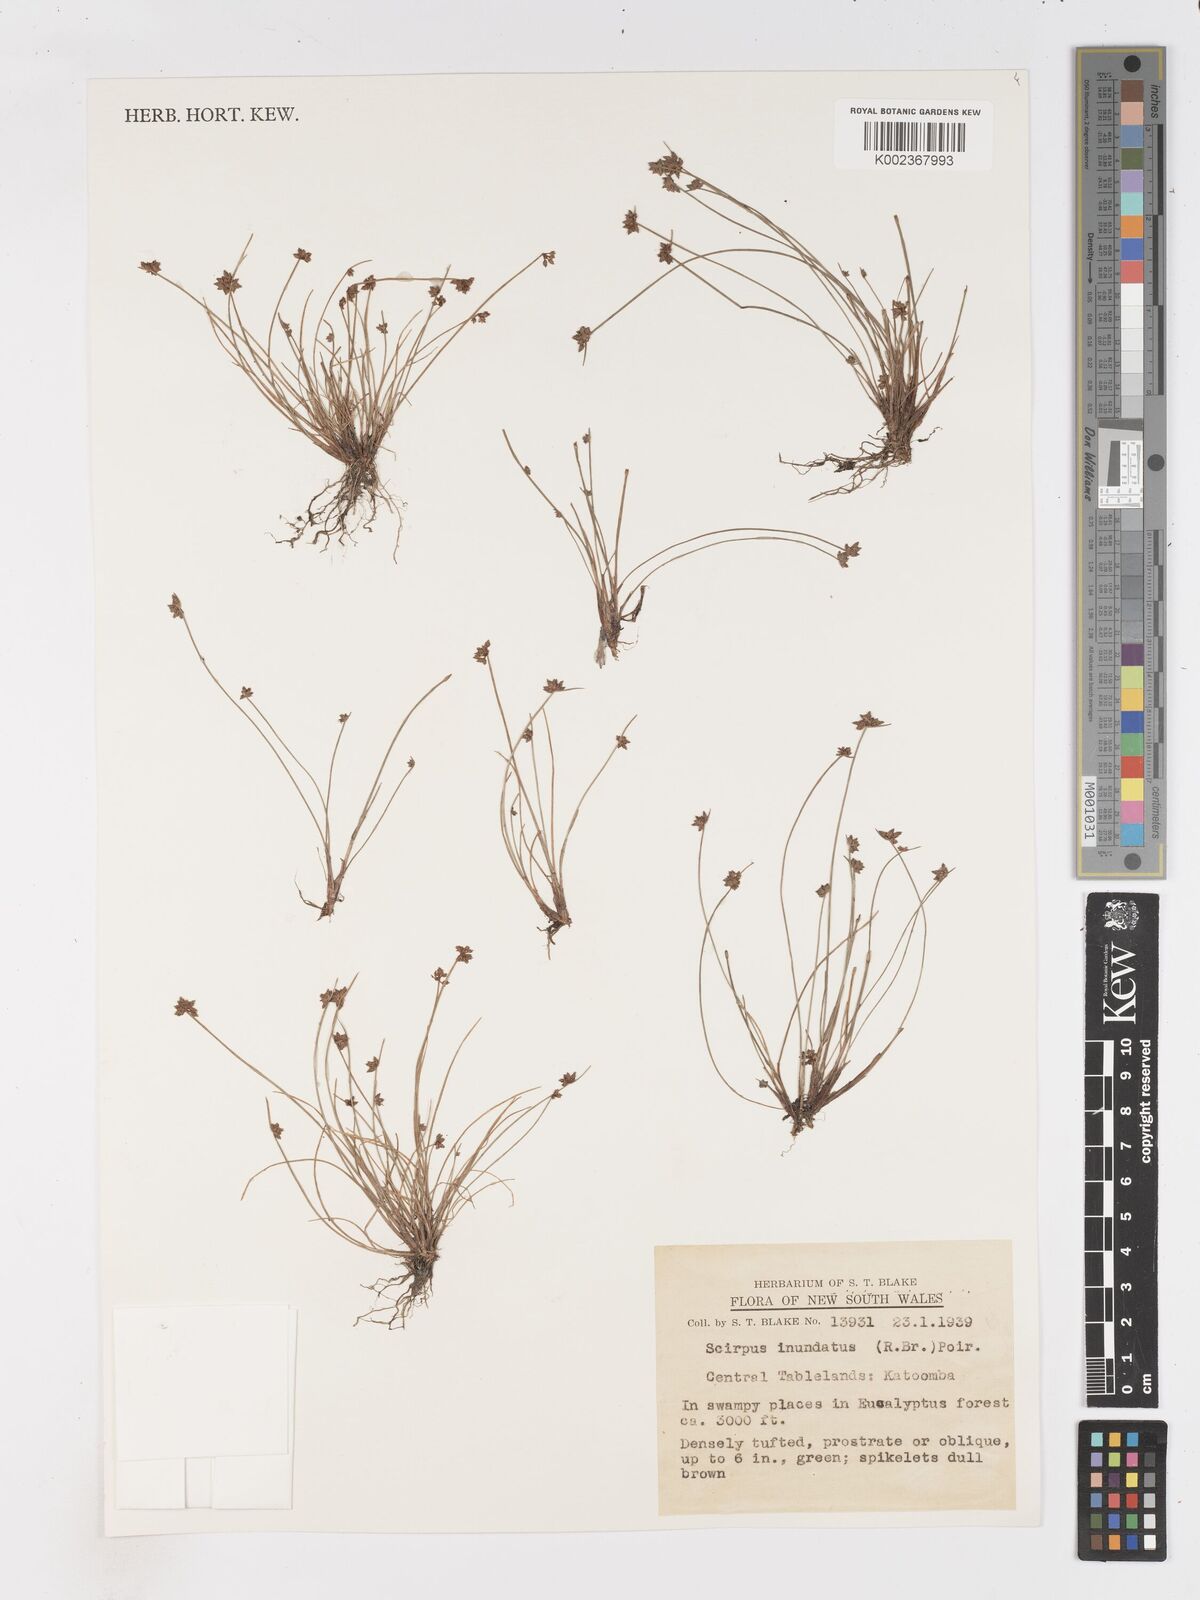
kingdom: Plantae
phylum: Tracheophyta
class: Liliopsida
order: Poales
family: Cyperaceae
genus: Isolepis
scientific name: Isolepis inundata
